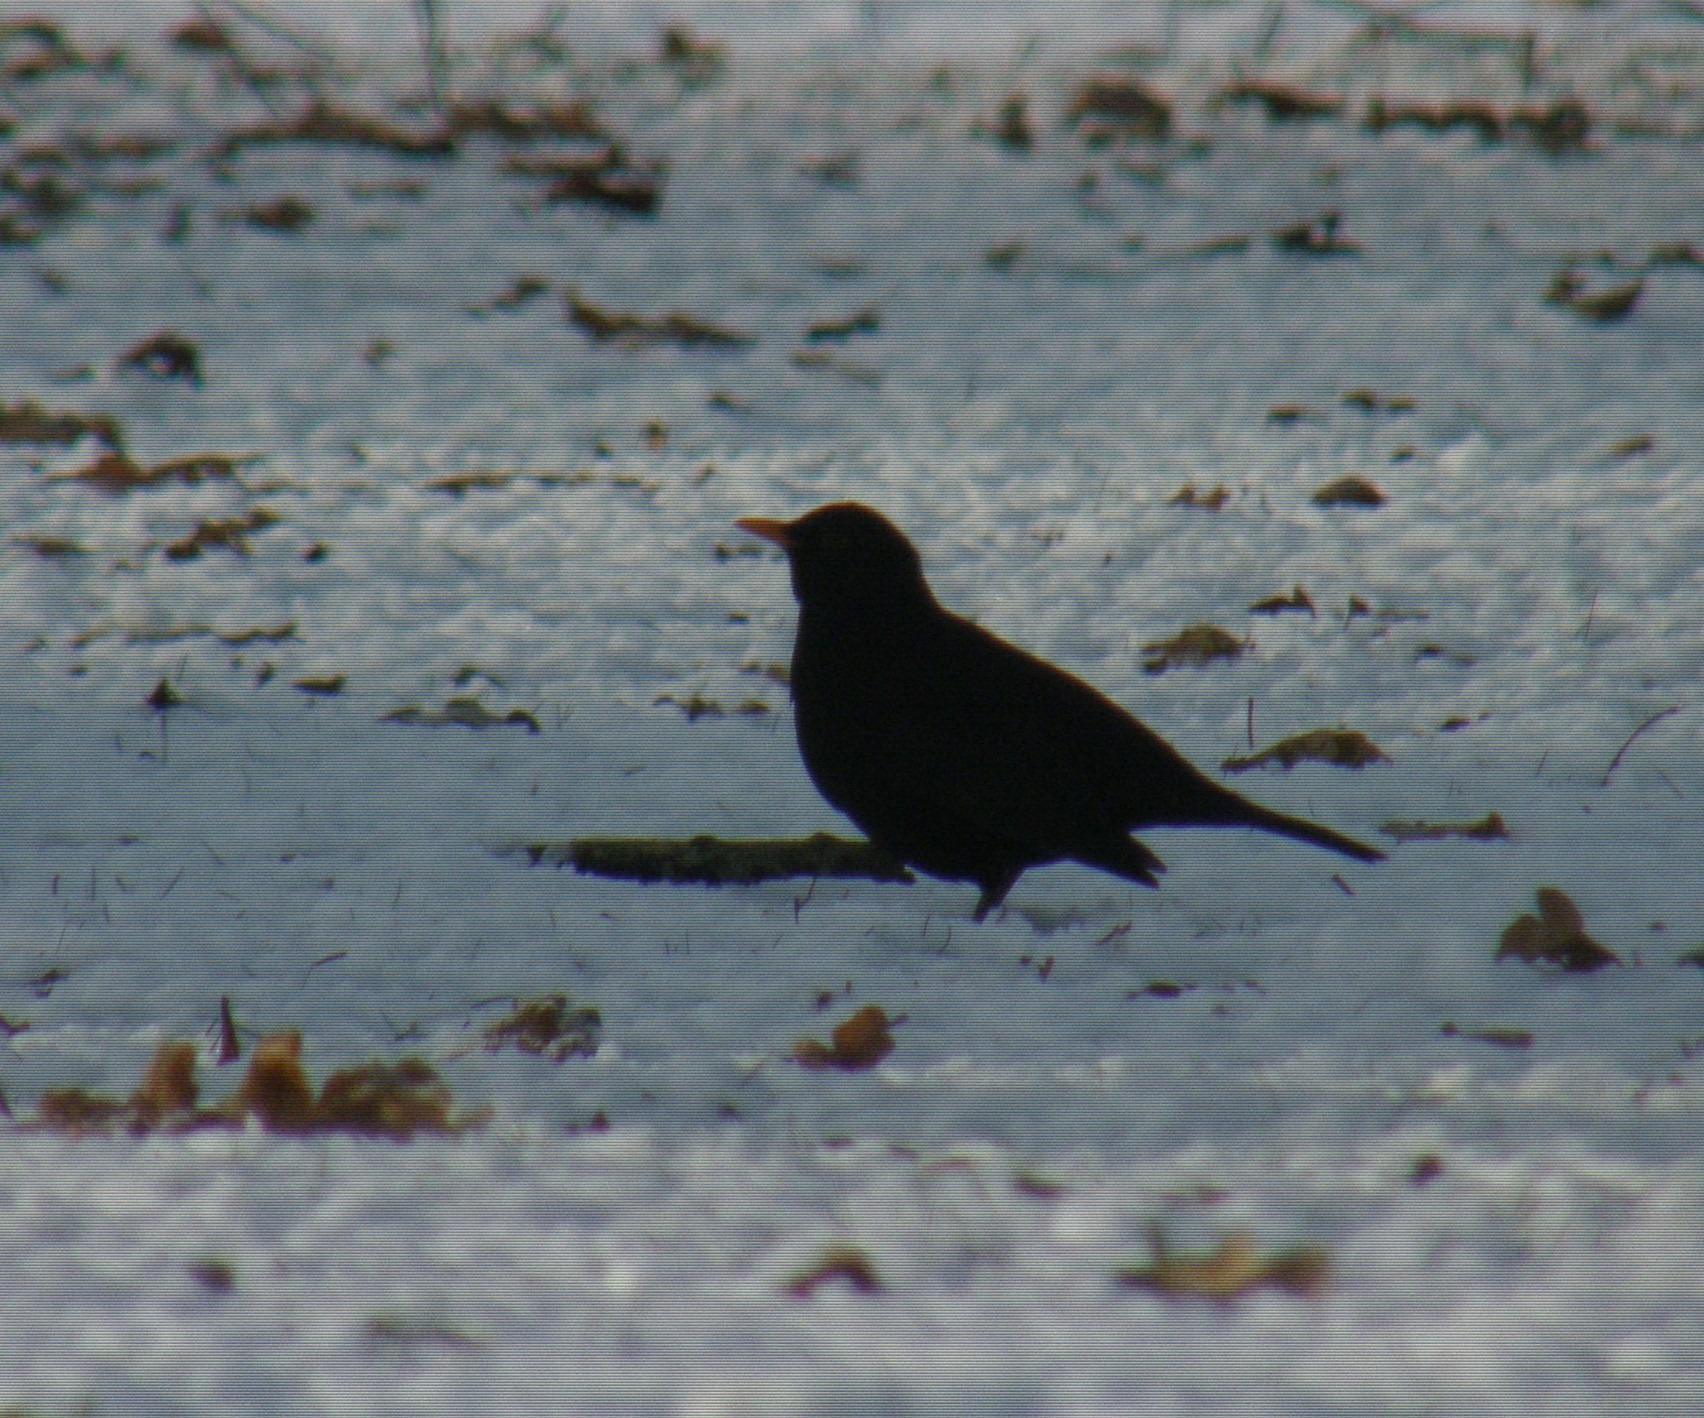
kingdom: Animalia
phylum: Chordata
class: Aves
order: Passeriformes
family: Turdidae
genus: Turdus
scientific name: Turdus merula
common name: Solsort
